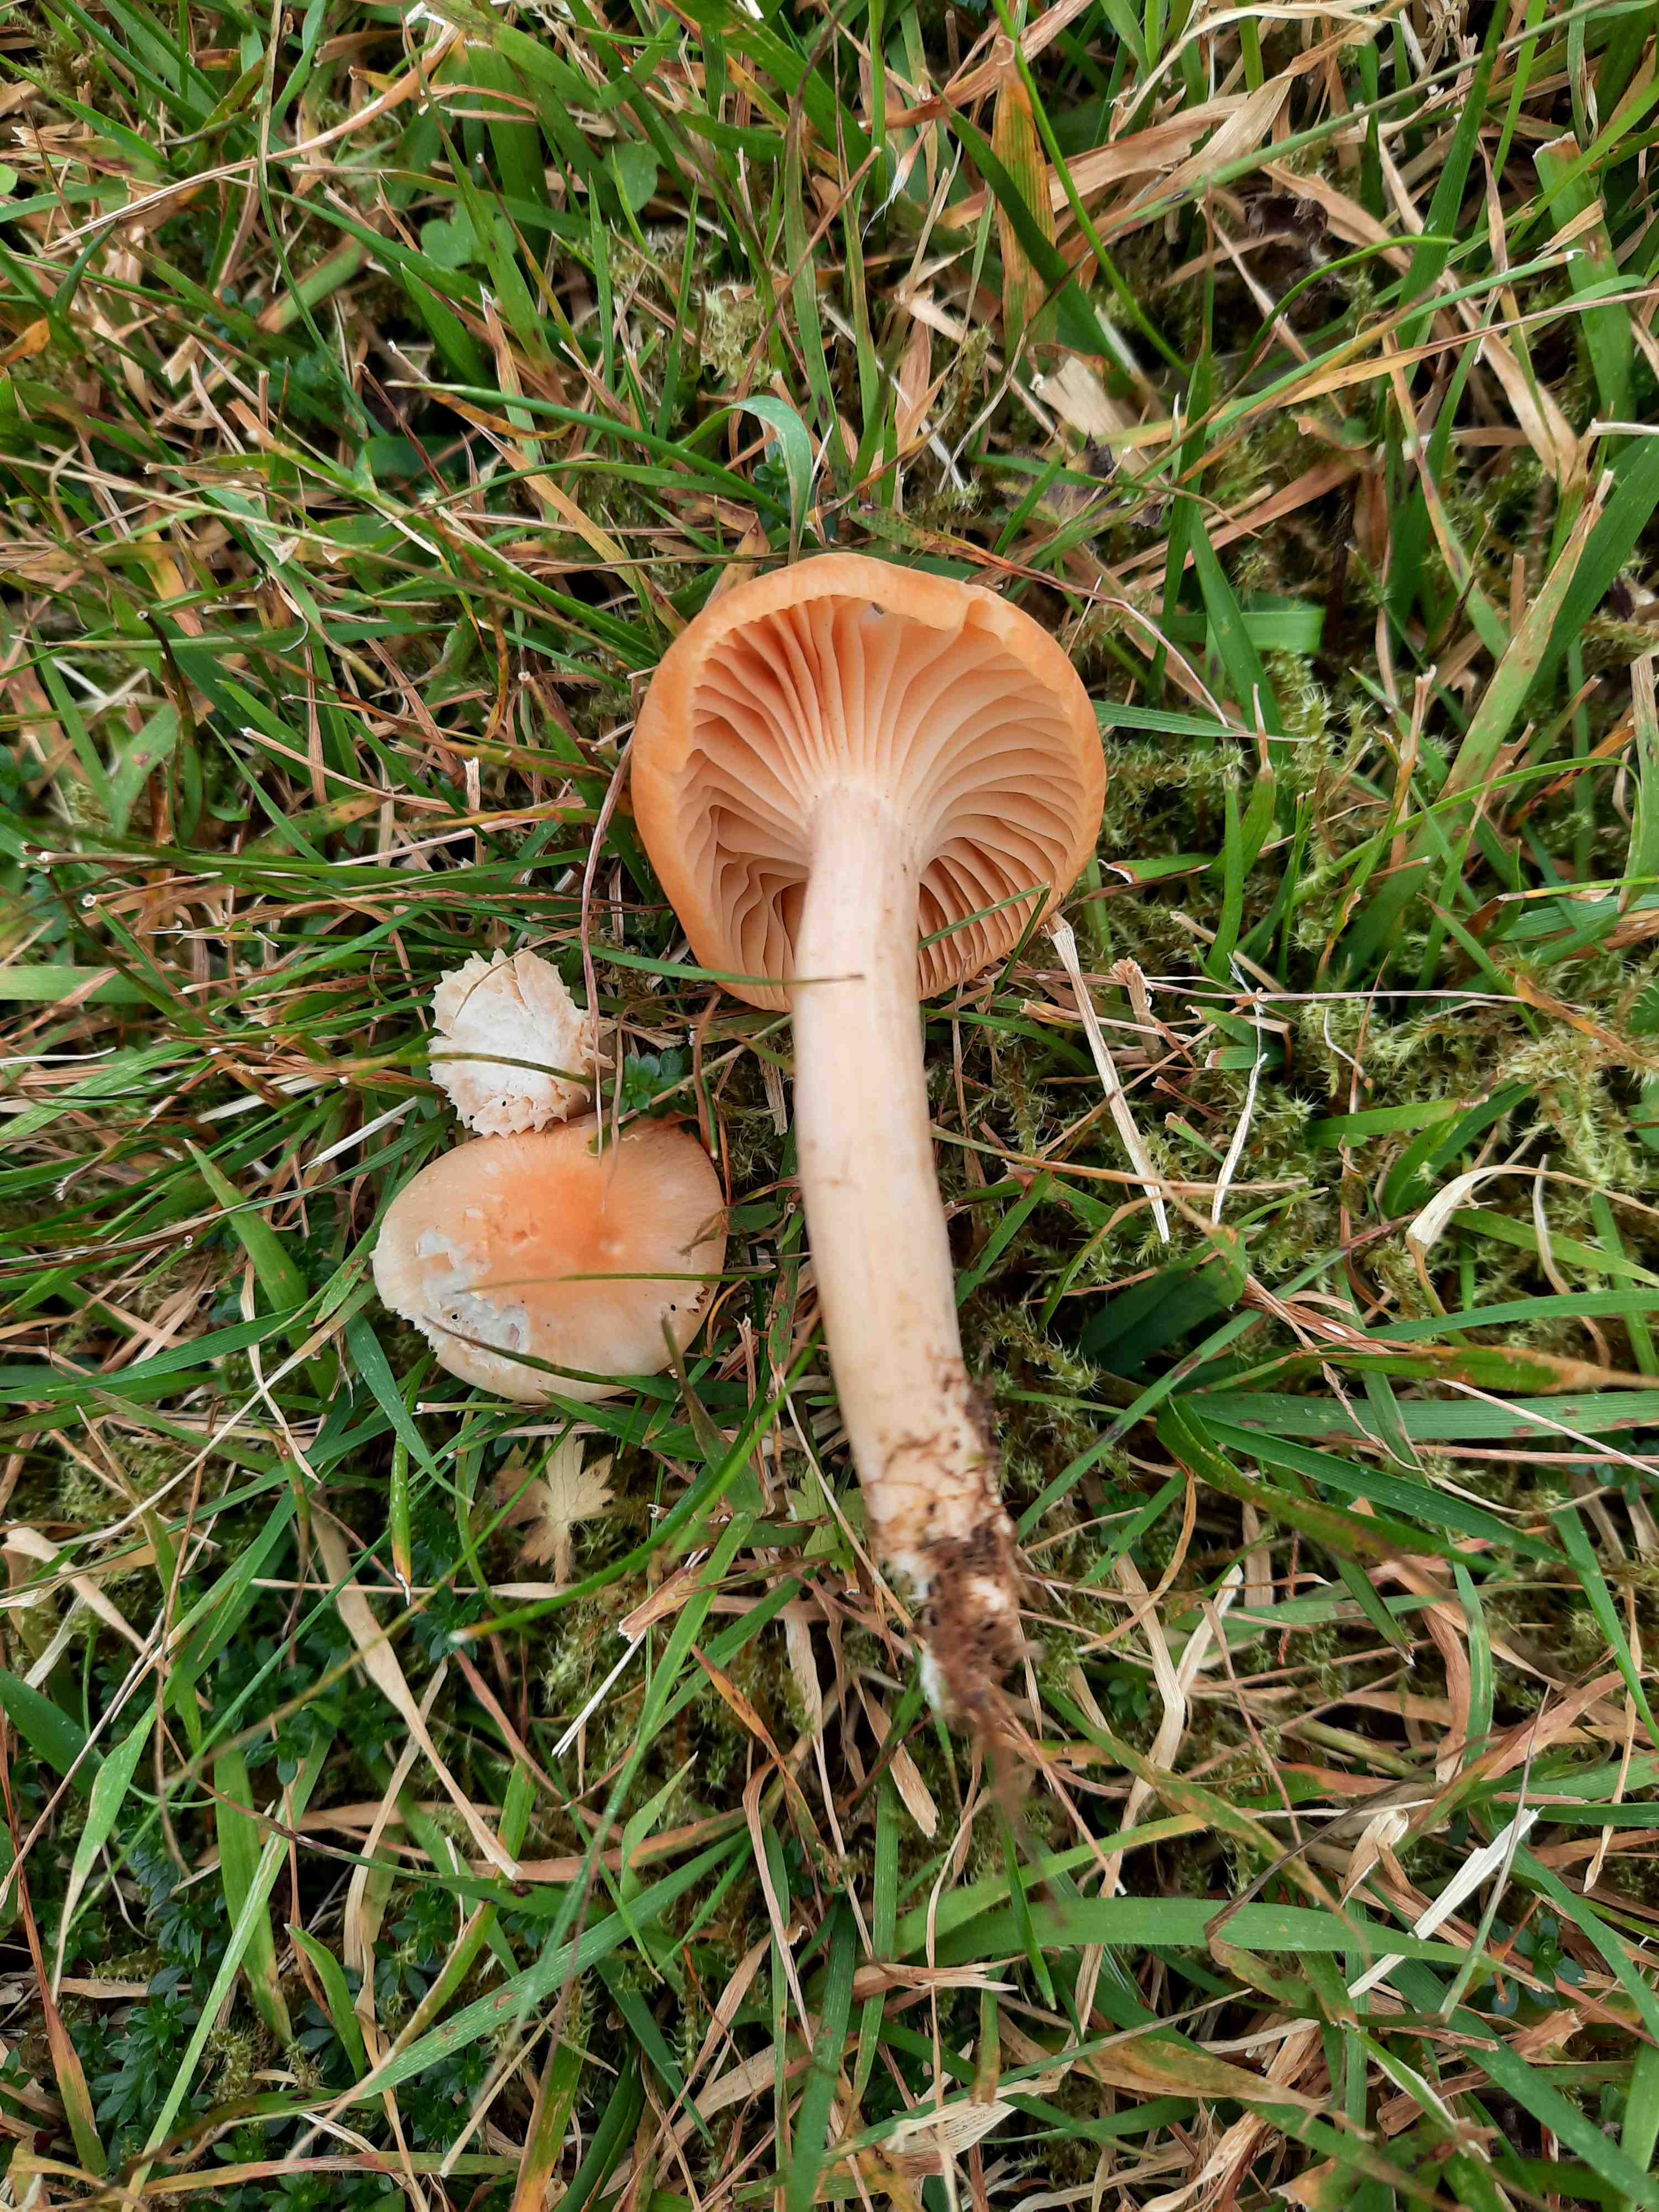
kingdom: Fungi
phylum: Basidiomycota
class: Agaricomycetes
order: Agaricales
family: Hygrophoraceae
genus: Cuphophyllus
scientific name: Cuphophyllus pratensis
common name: eng-vokshat
